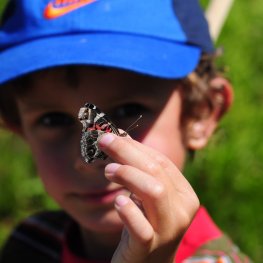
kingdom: Animalia
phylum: Arthropoda
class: Insecta
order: Lepidoptera
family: Nymphalidae
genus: Vanessa
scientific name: Vanessa virginiensis
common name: American Lady
